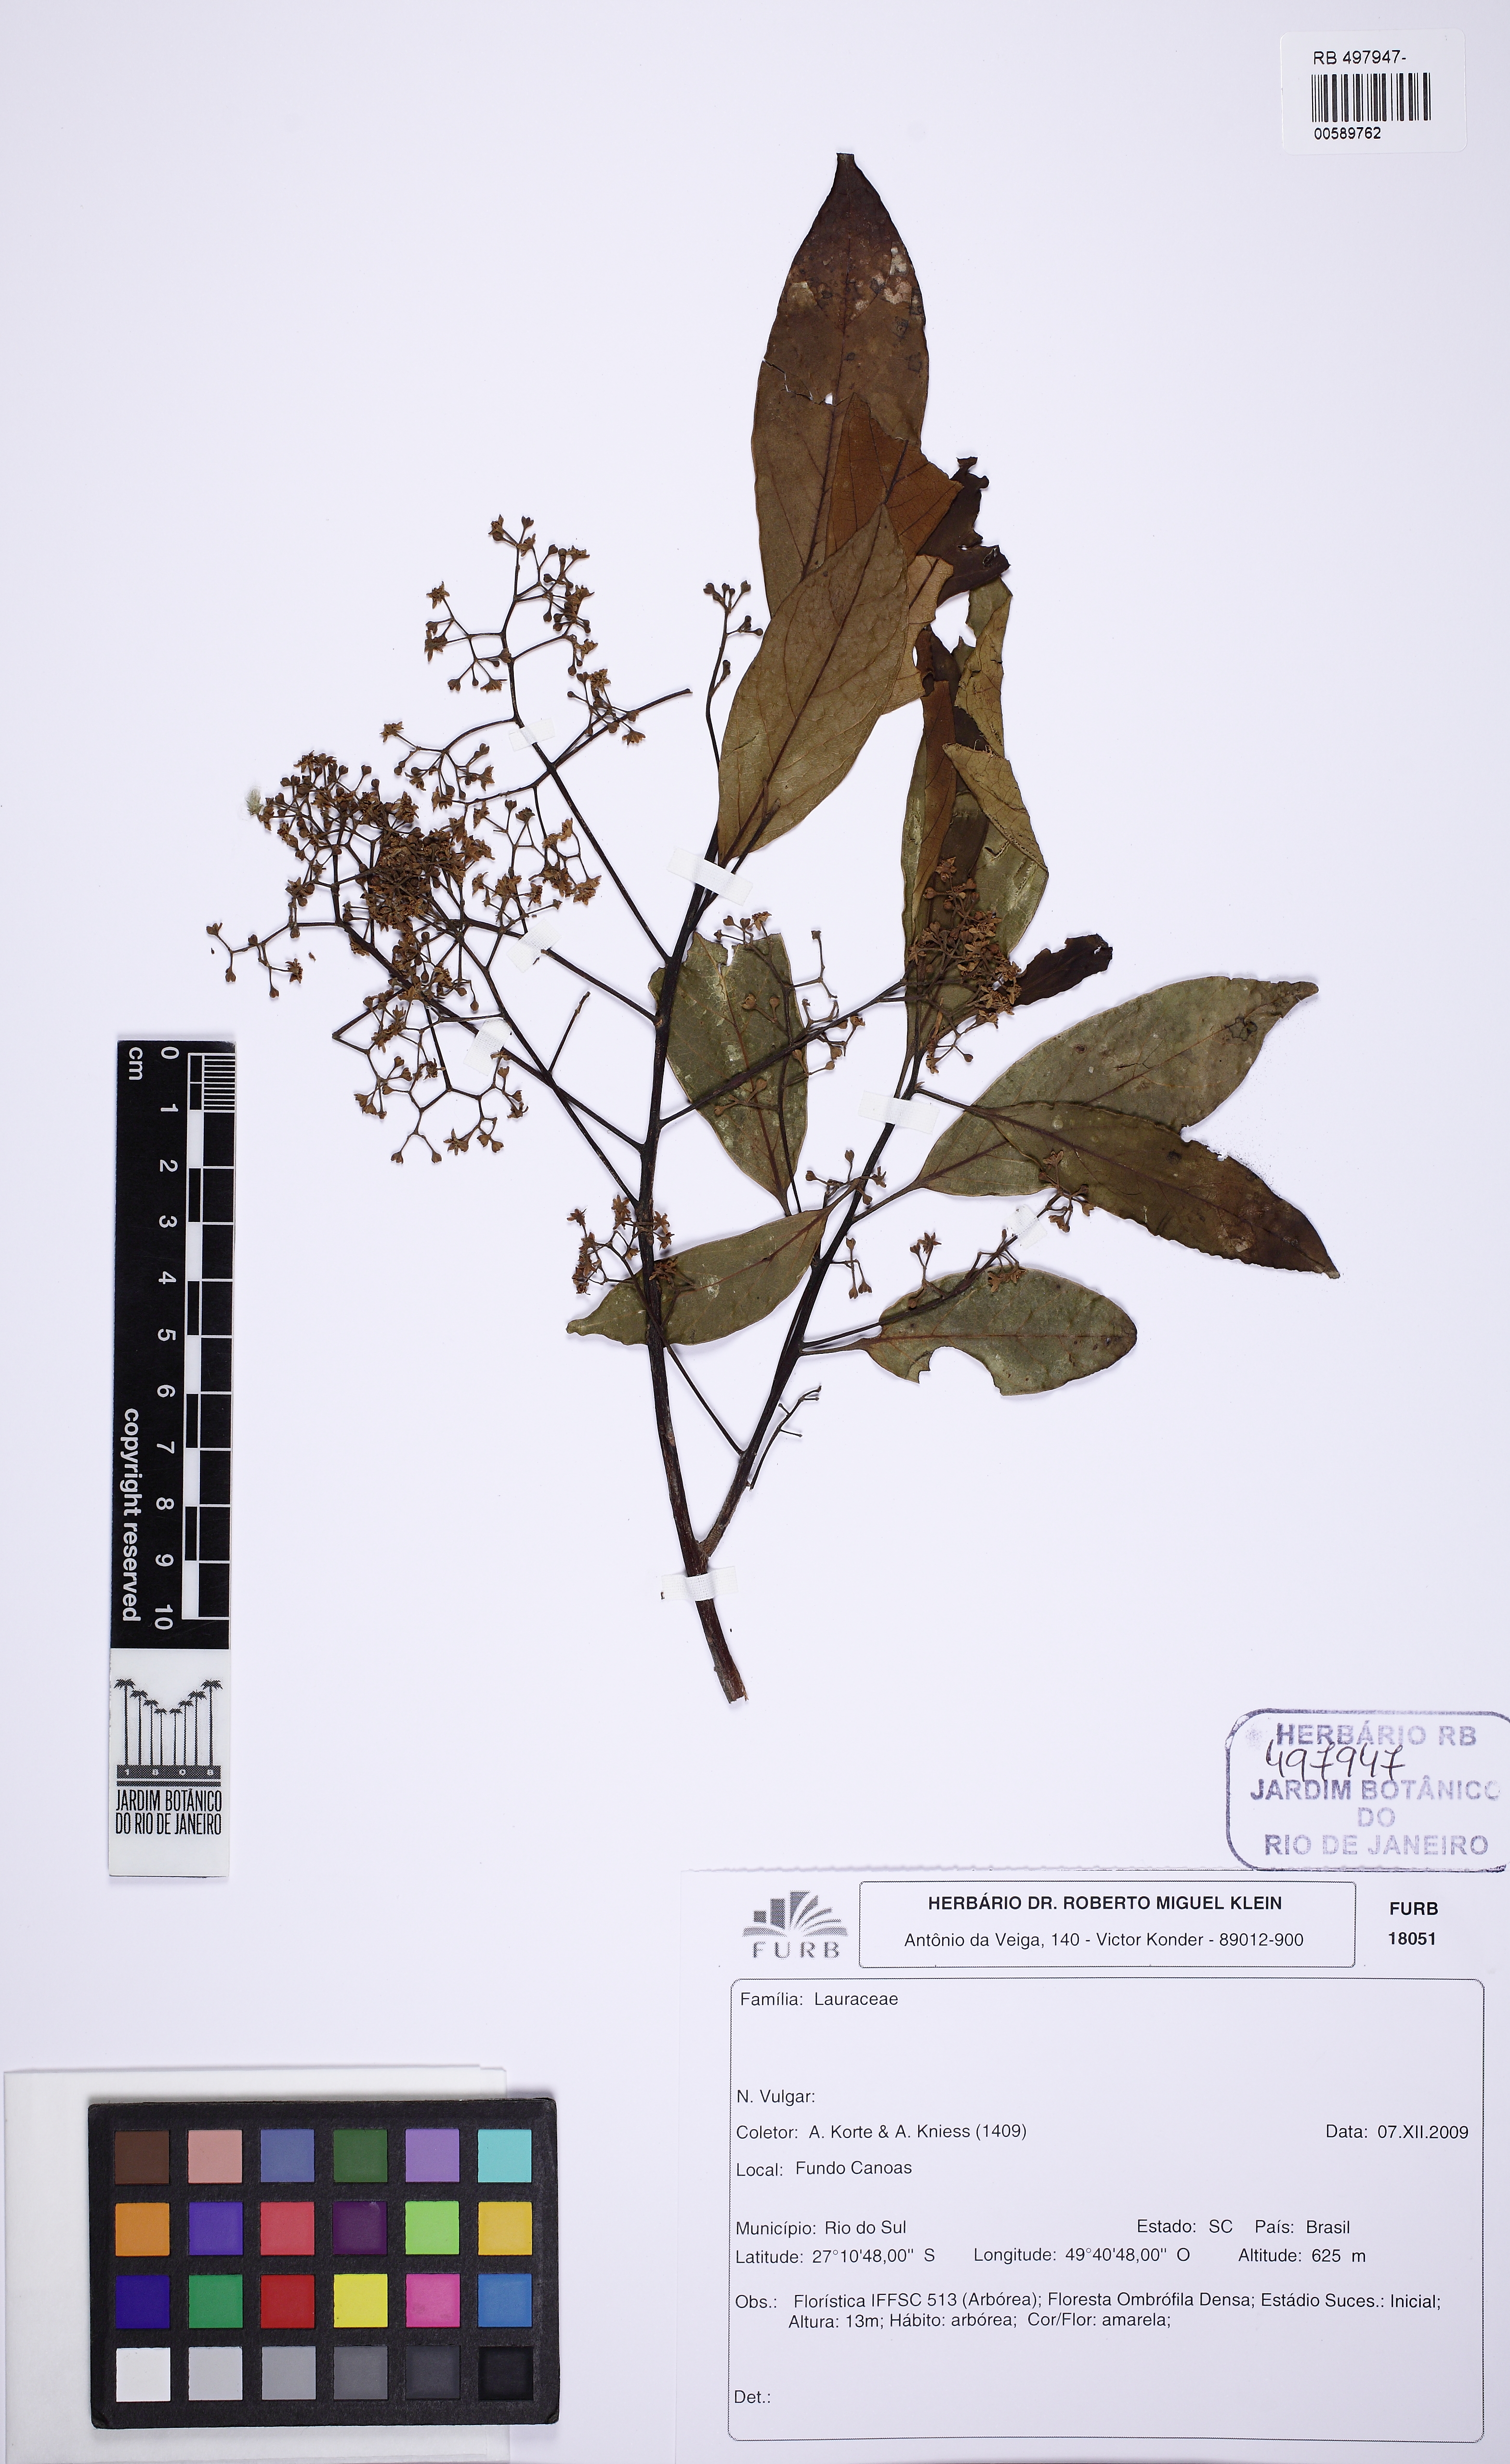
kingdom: Plantae
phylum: Tracheophyta
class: Magnoliopsida
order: Laurales
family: Lauraceae
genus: Ocotea
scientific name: Ocotea nunesiana
